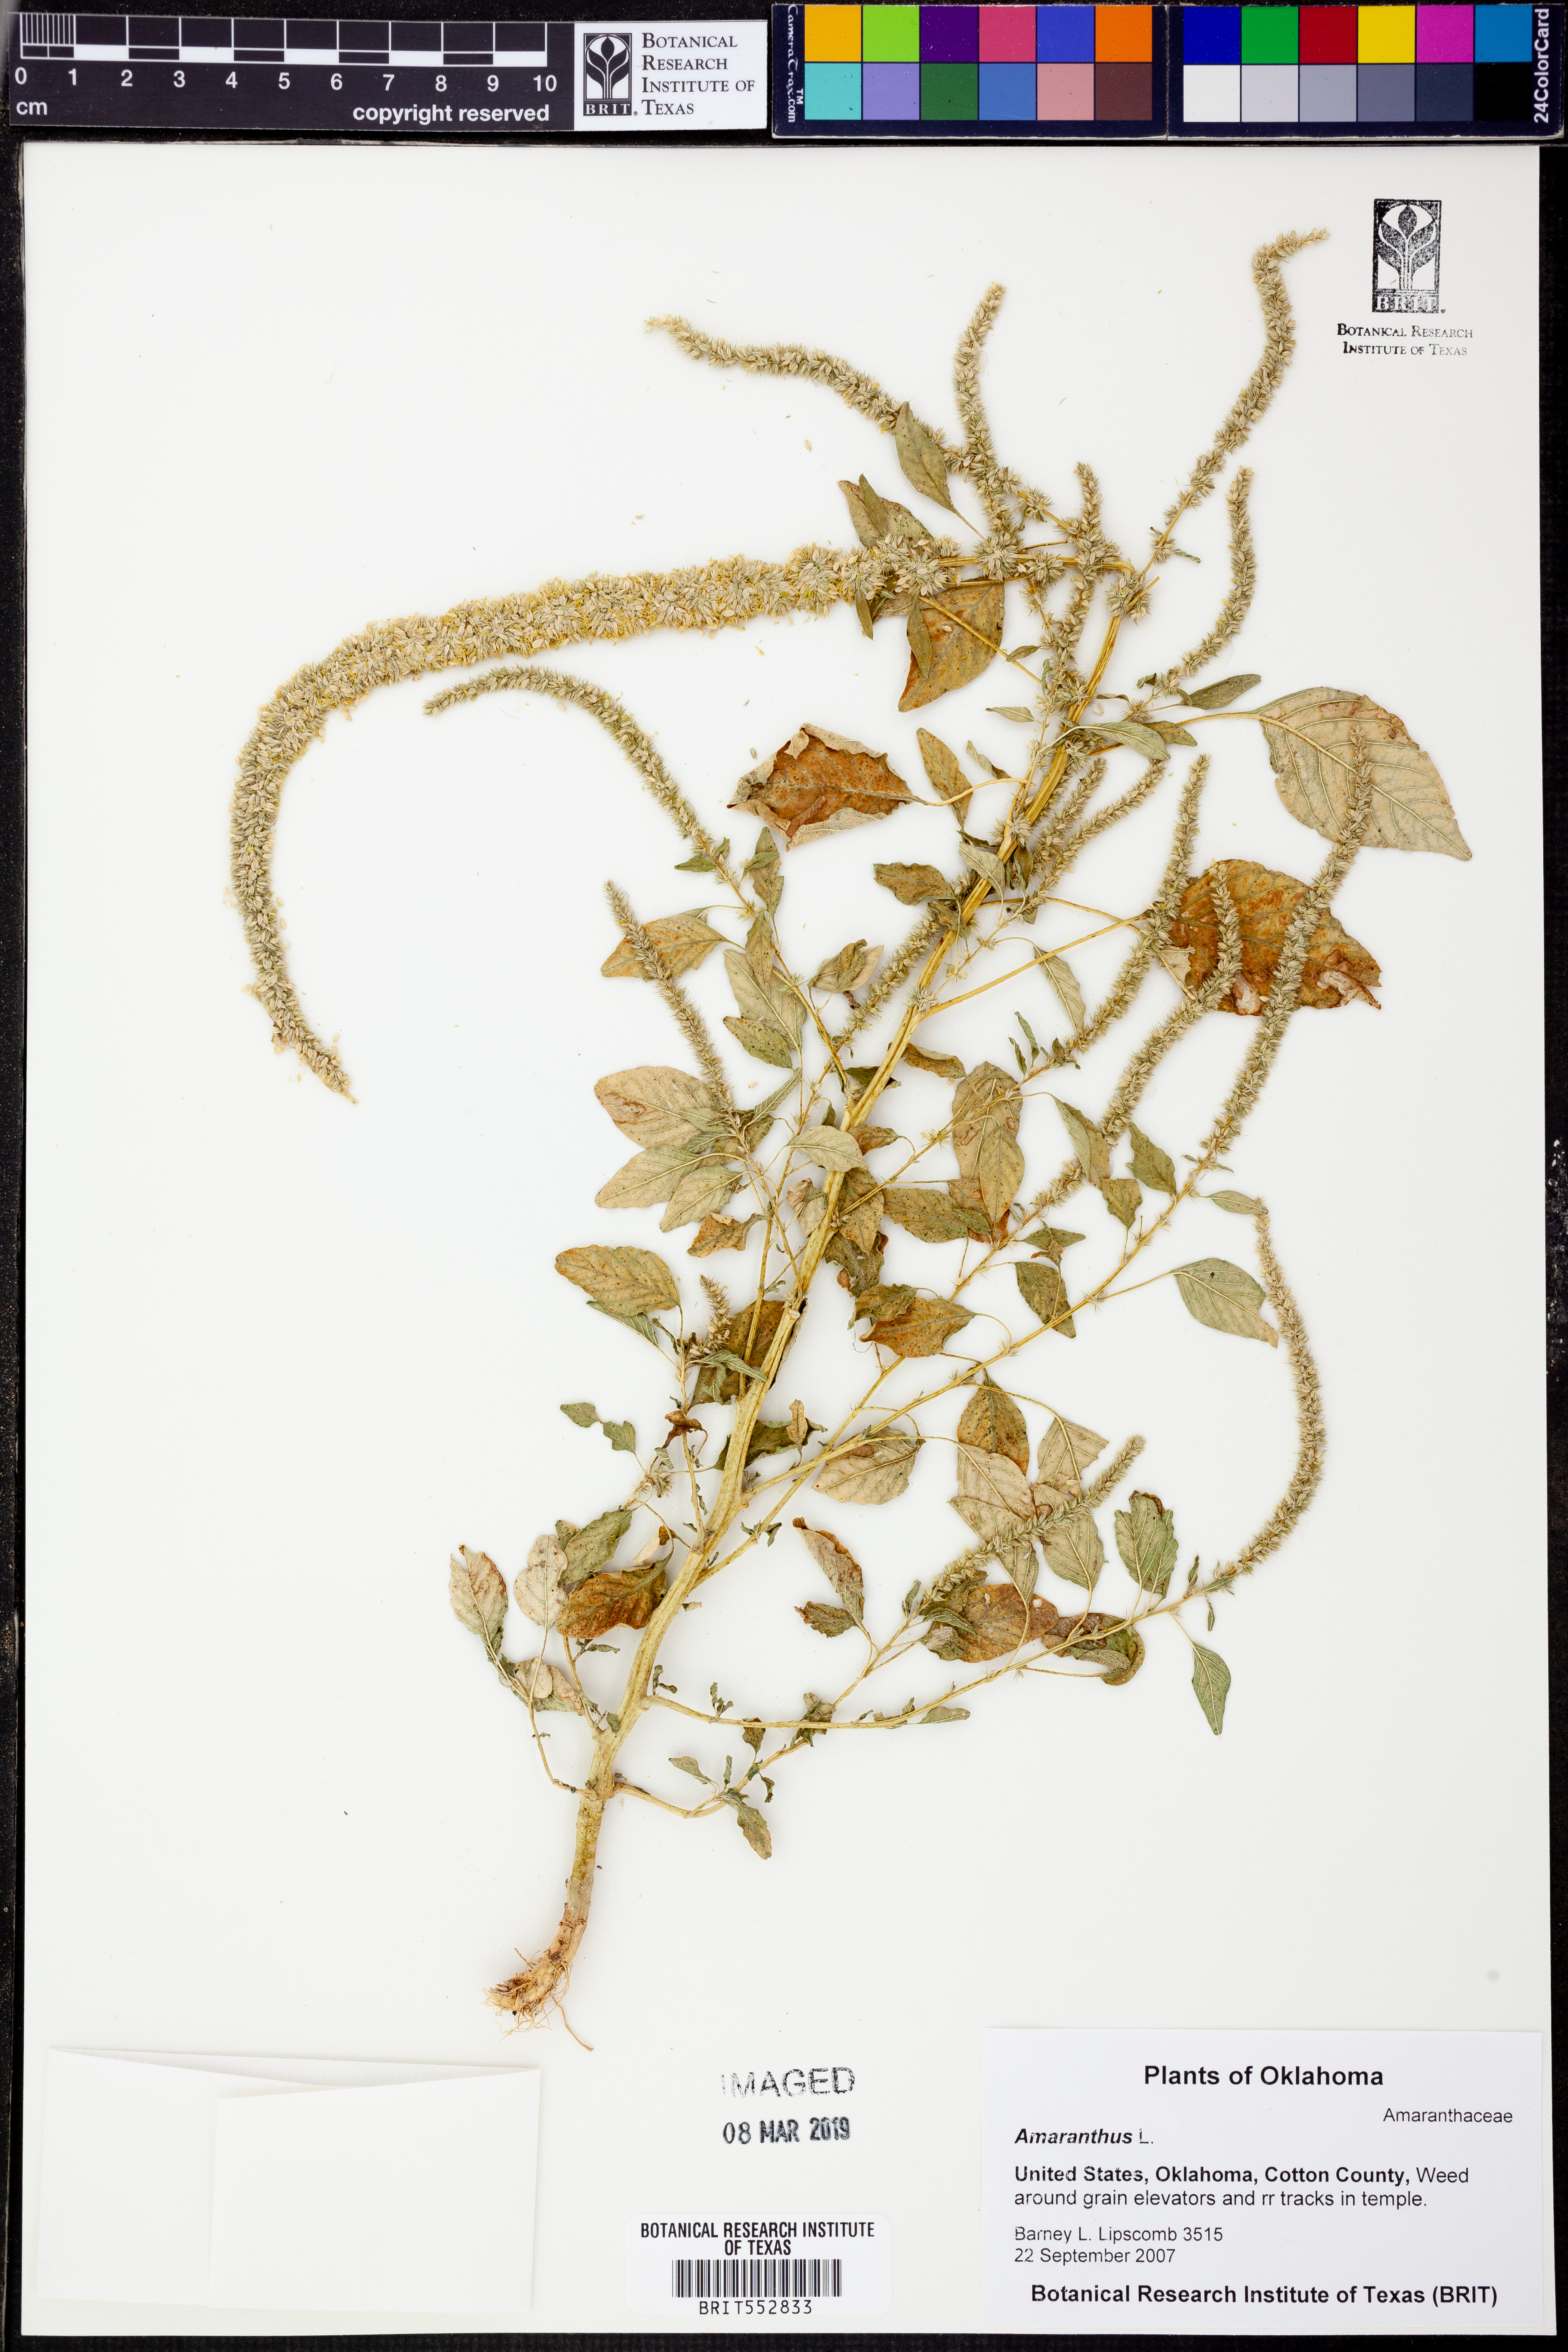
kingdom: Plantae
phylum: Tracheophyta
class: Magnoliopsida
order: Caryophyllales
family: Amaranthaceae
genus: Amaranthus
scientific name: Amaranthus
